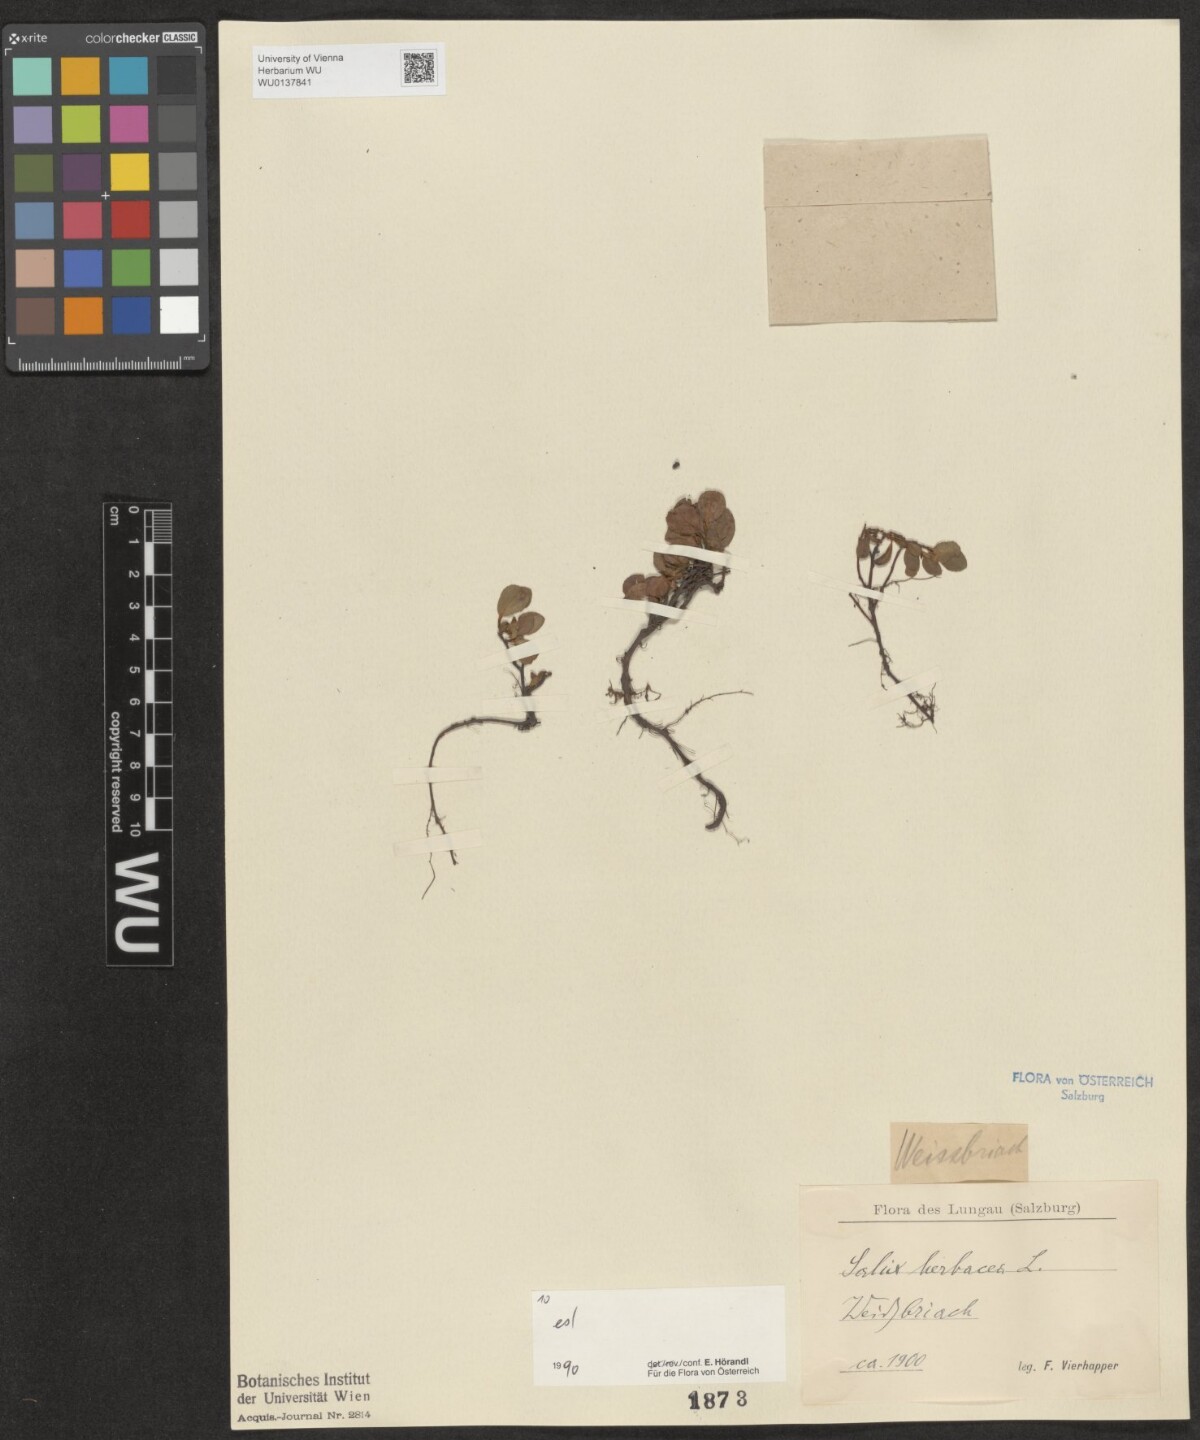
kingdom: Plantae
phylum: Tracheophyta
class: Magnoliopsida
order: Malpighiales
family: Salicaceae
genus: Salix
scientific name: Salix herbacea
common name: Dwarf willow
